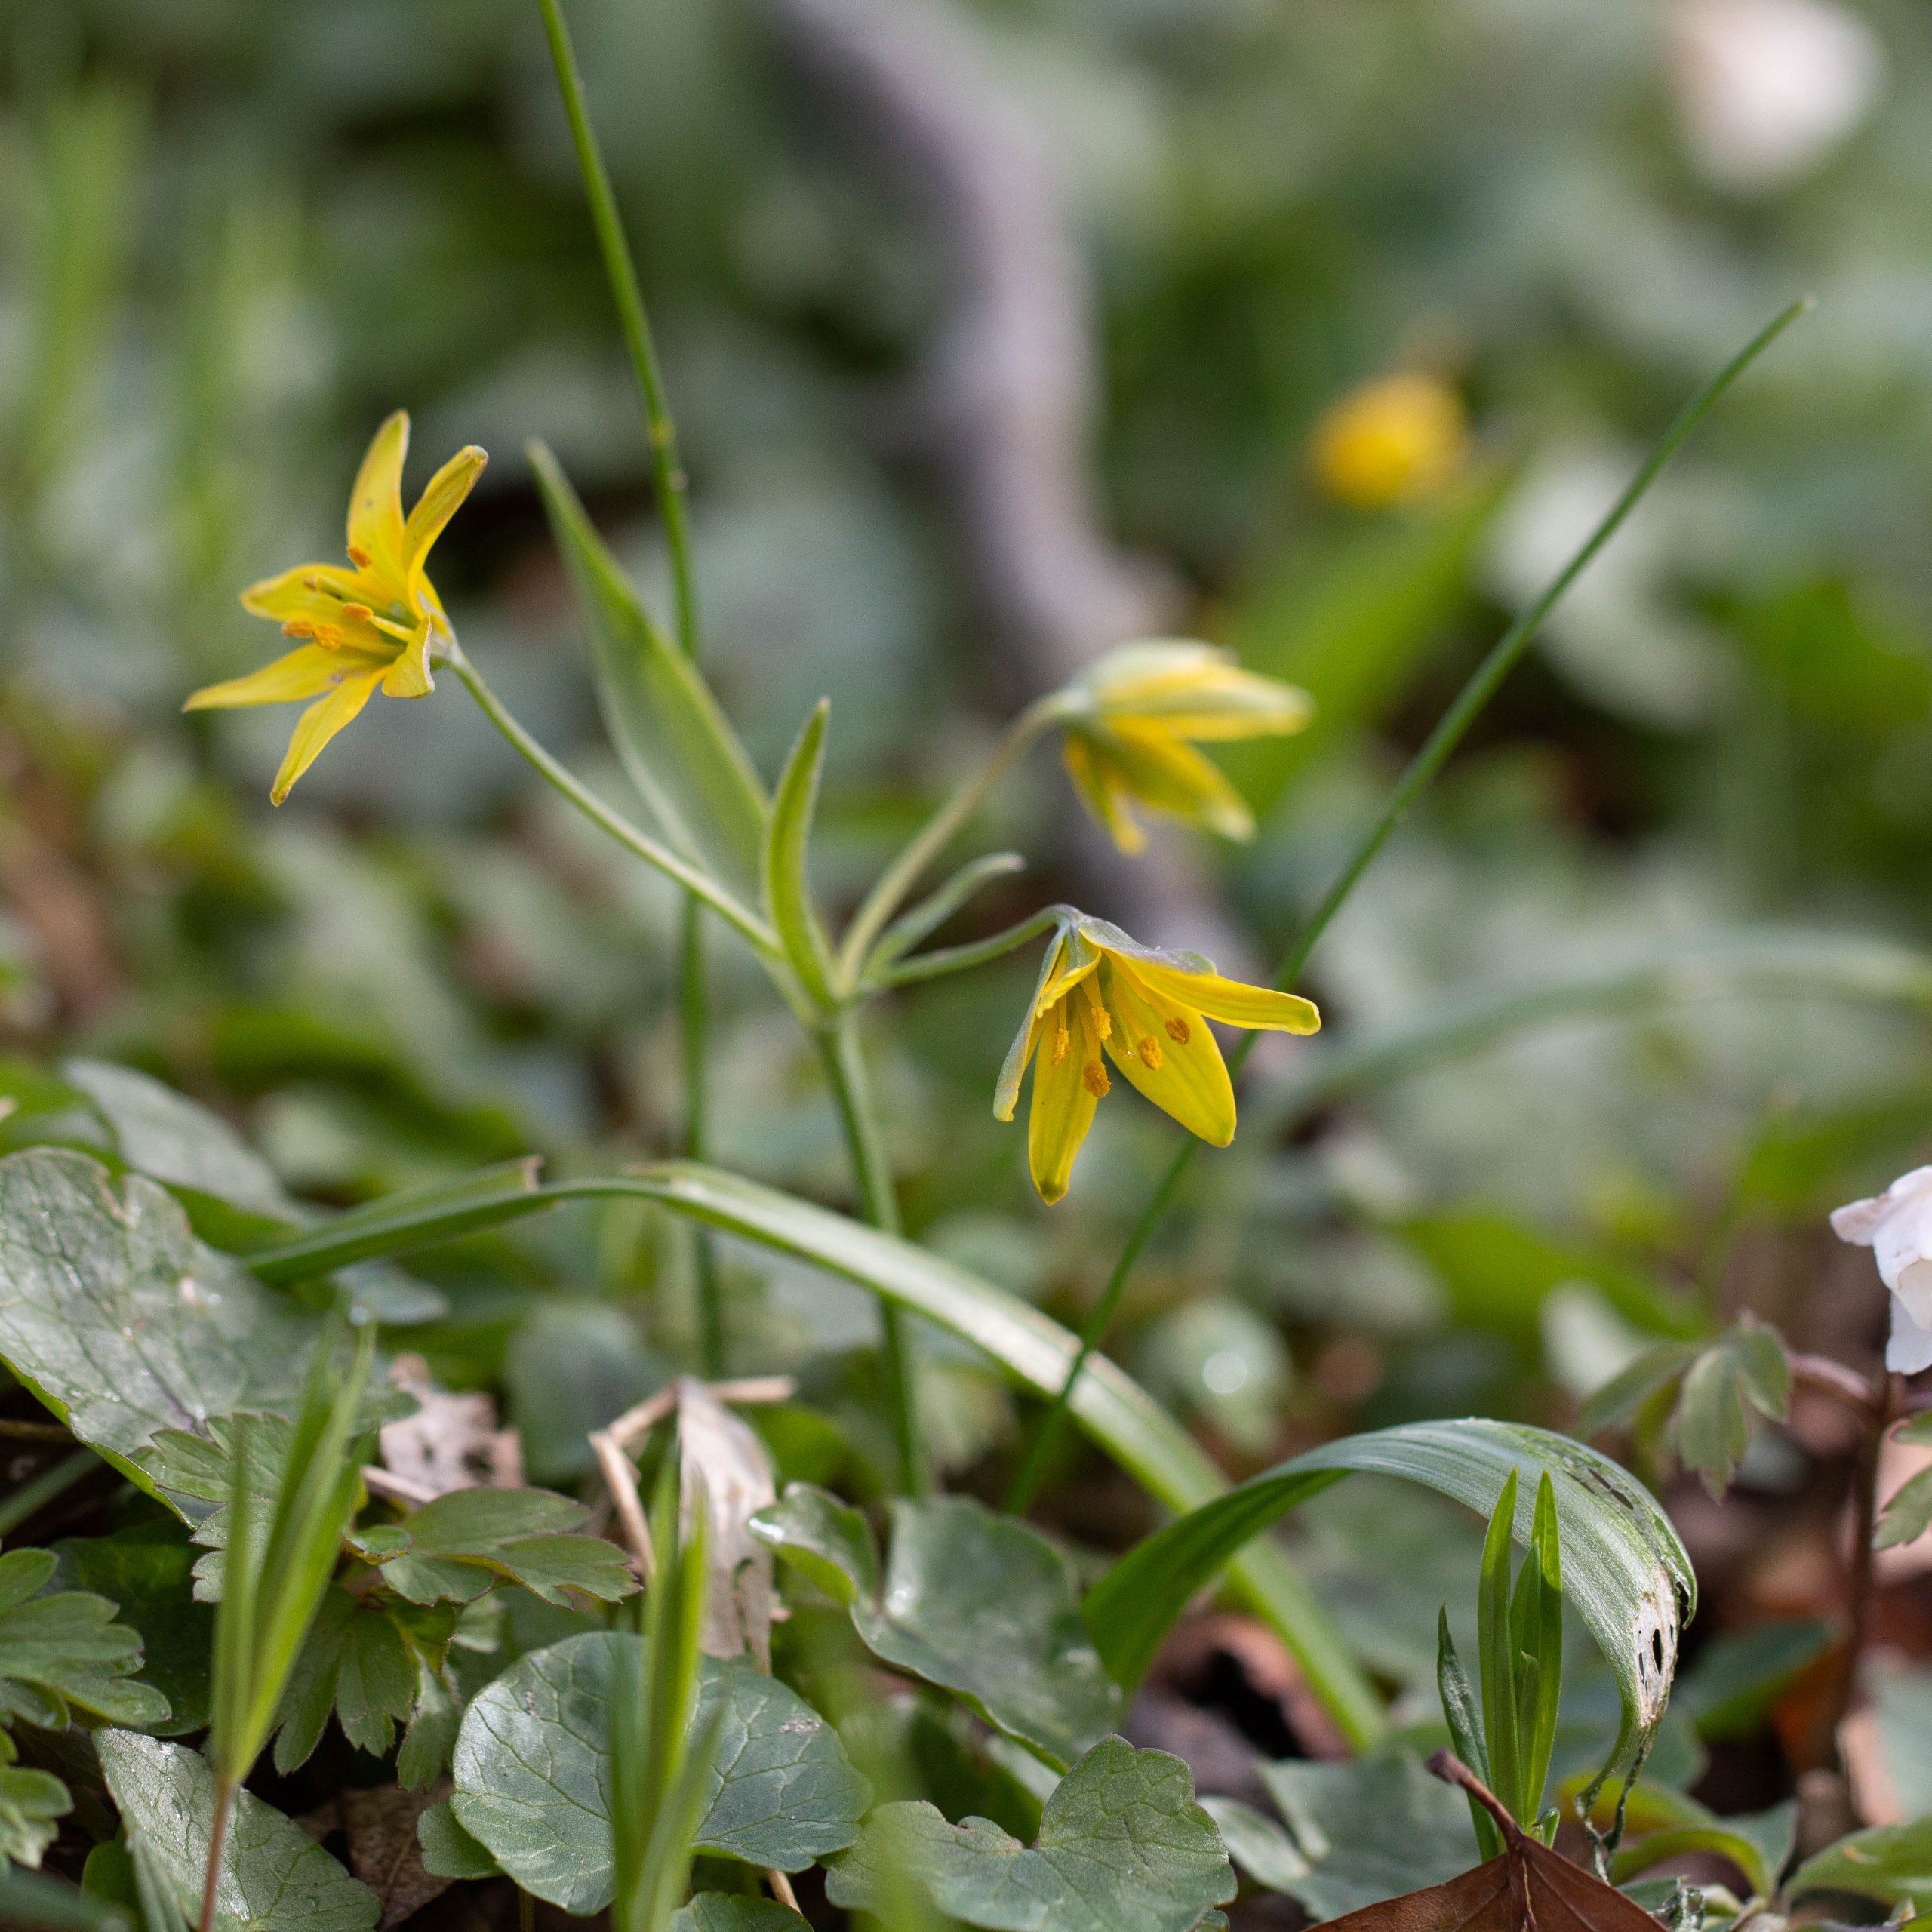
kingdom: Plantae
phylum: Tracheophyta
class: Liliopsida
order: Liliales
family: Liliaceae
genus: Gagea
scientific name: Gagea lutea
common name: Almindelig guldstjerne
